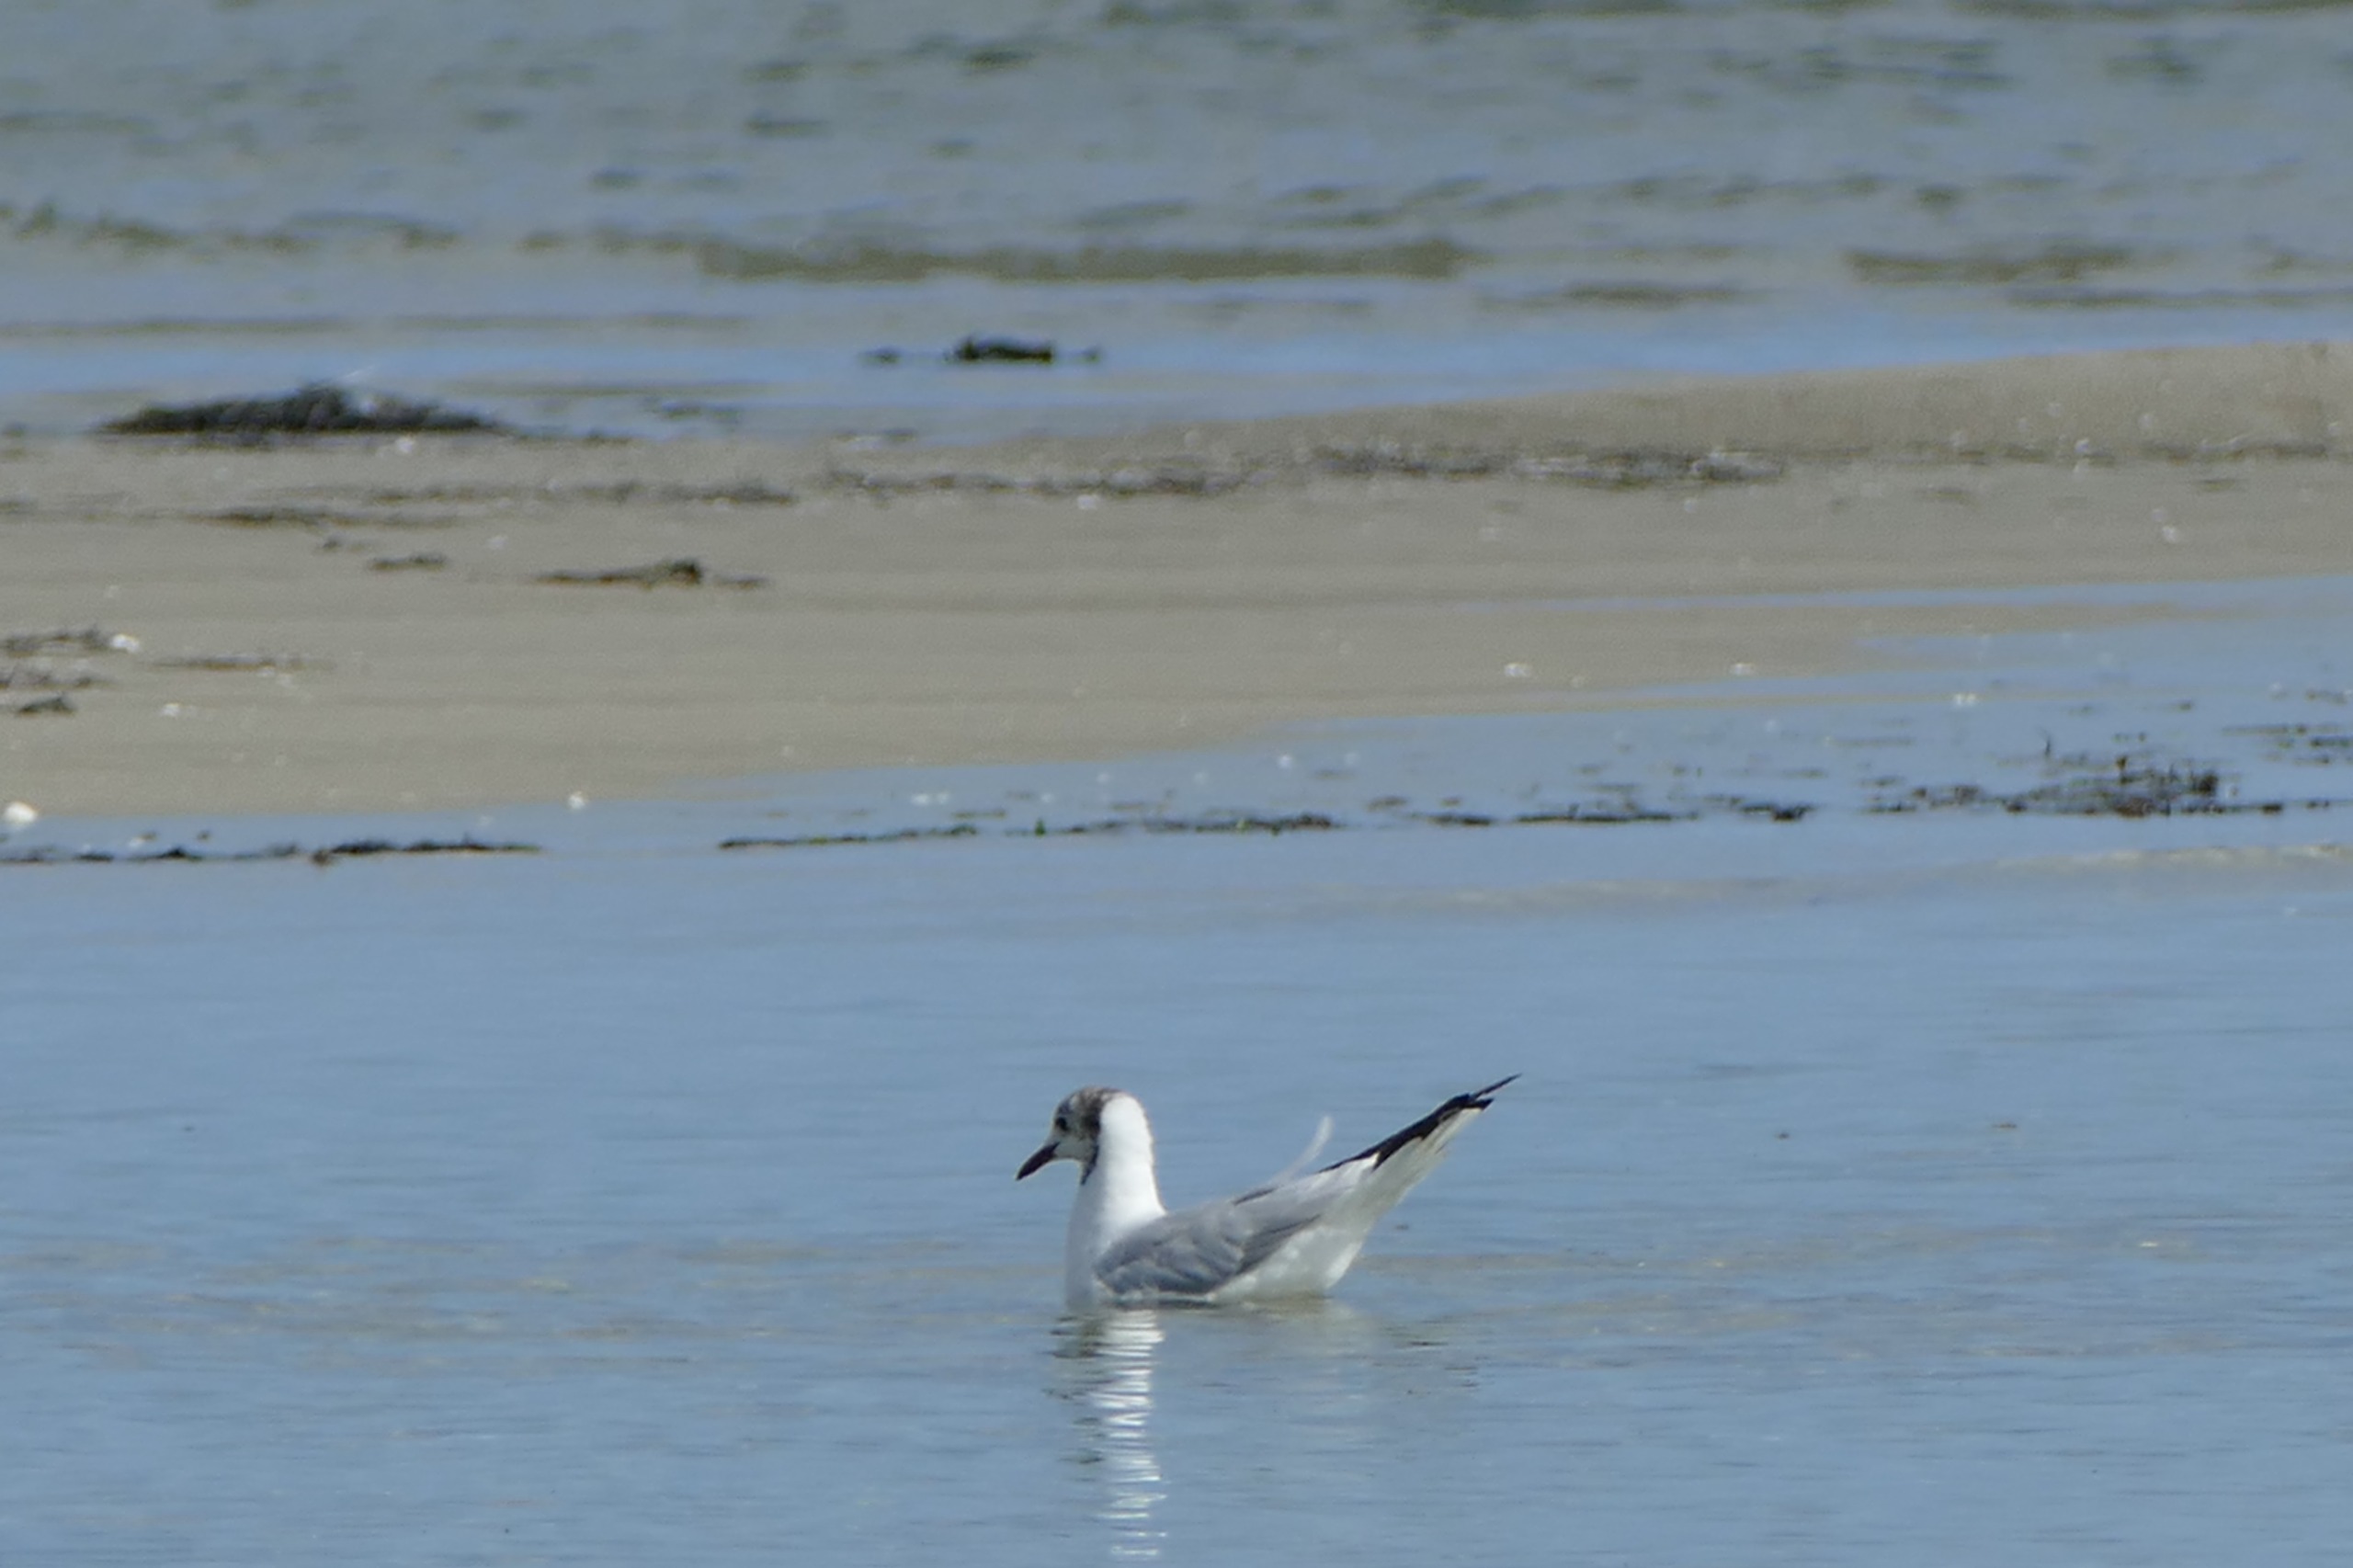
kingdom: Animalia
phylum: Chordata
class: Aves
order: Charadriiformes
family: Laridae
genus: Chroicocephalus
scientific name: Chroicocephalus ridibundus
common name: Hættemåge
